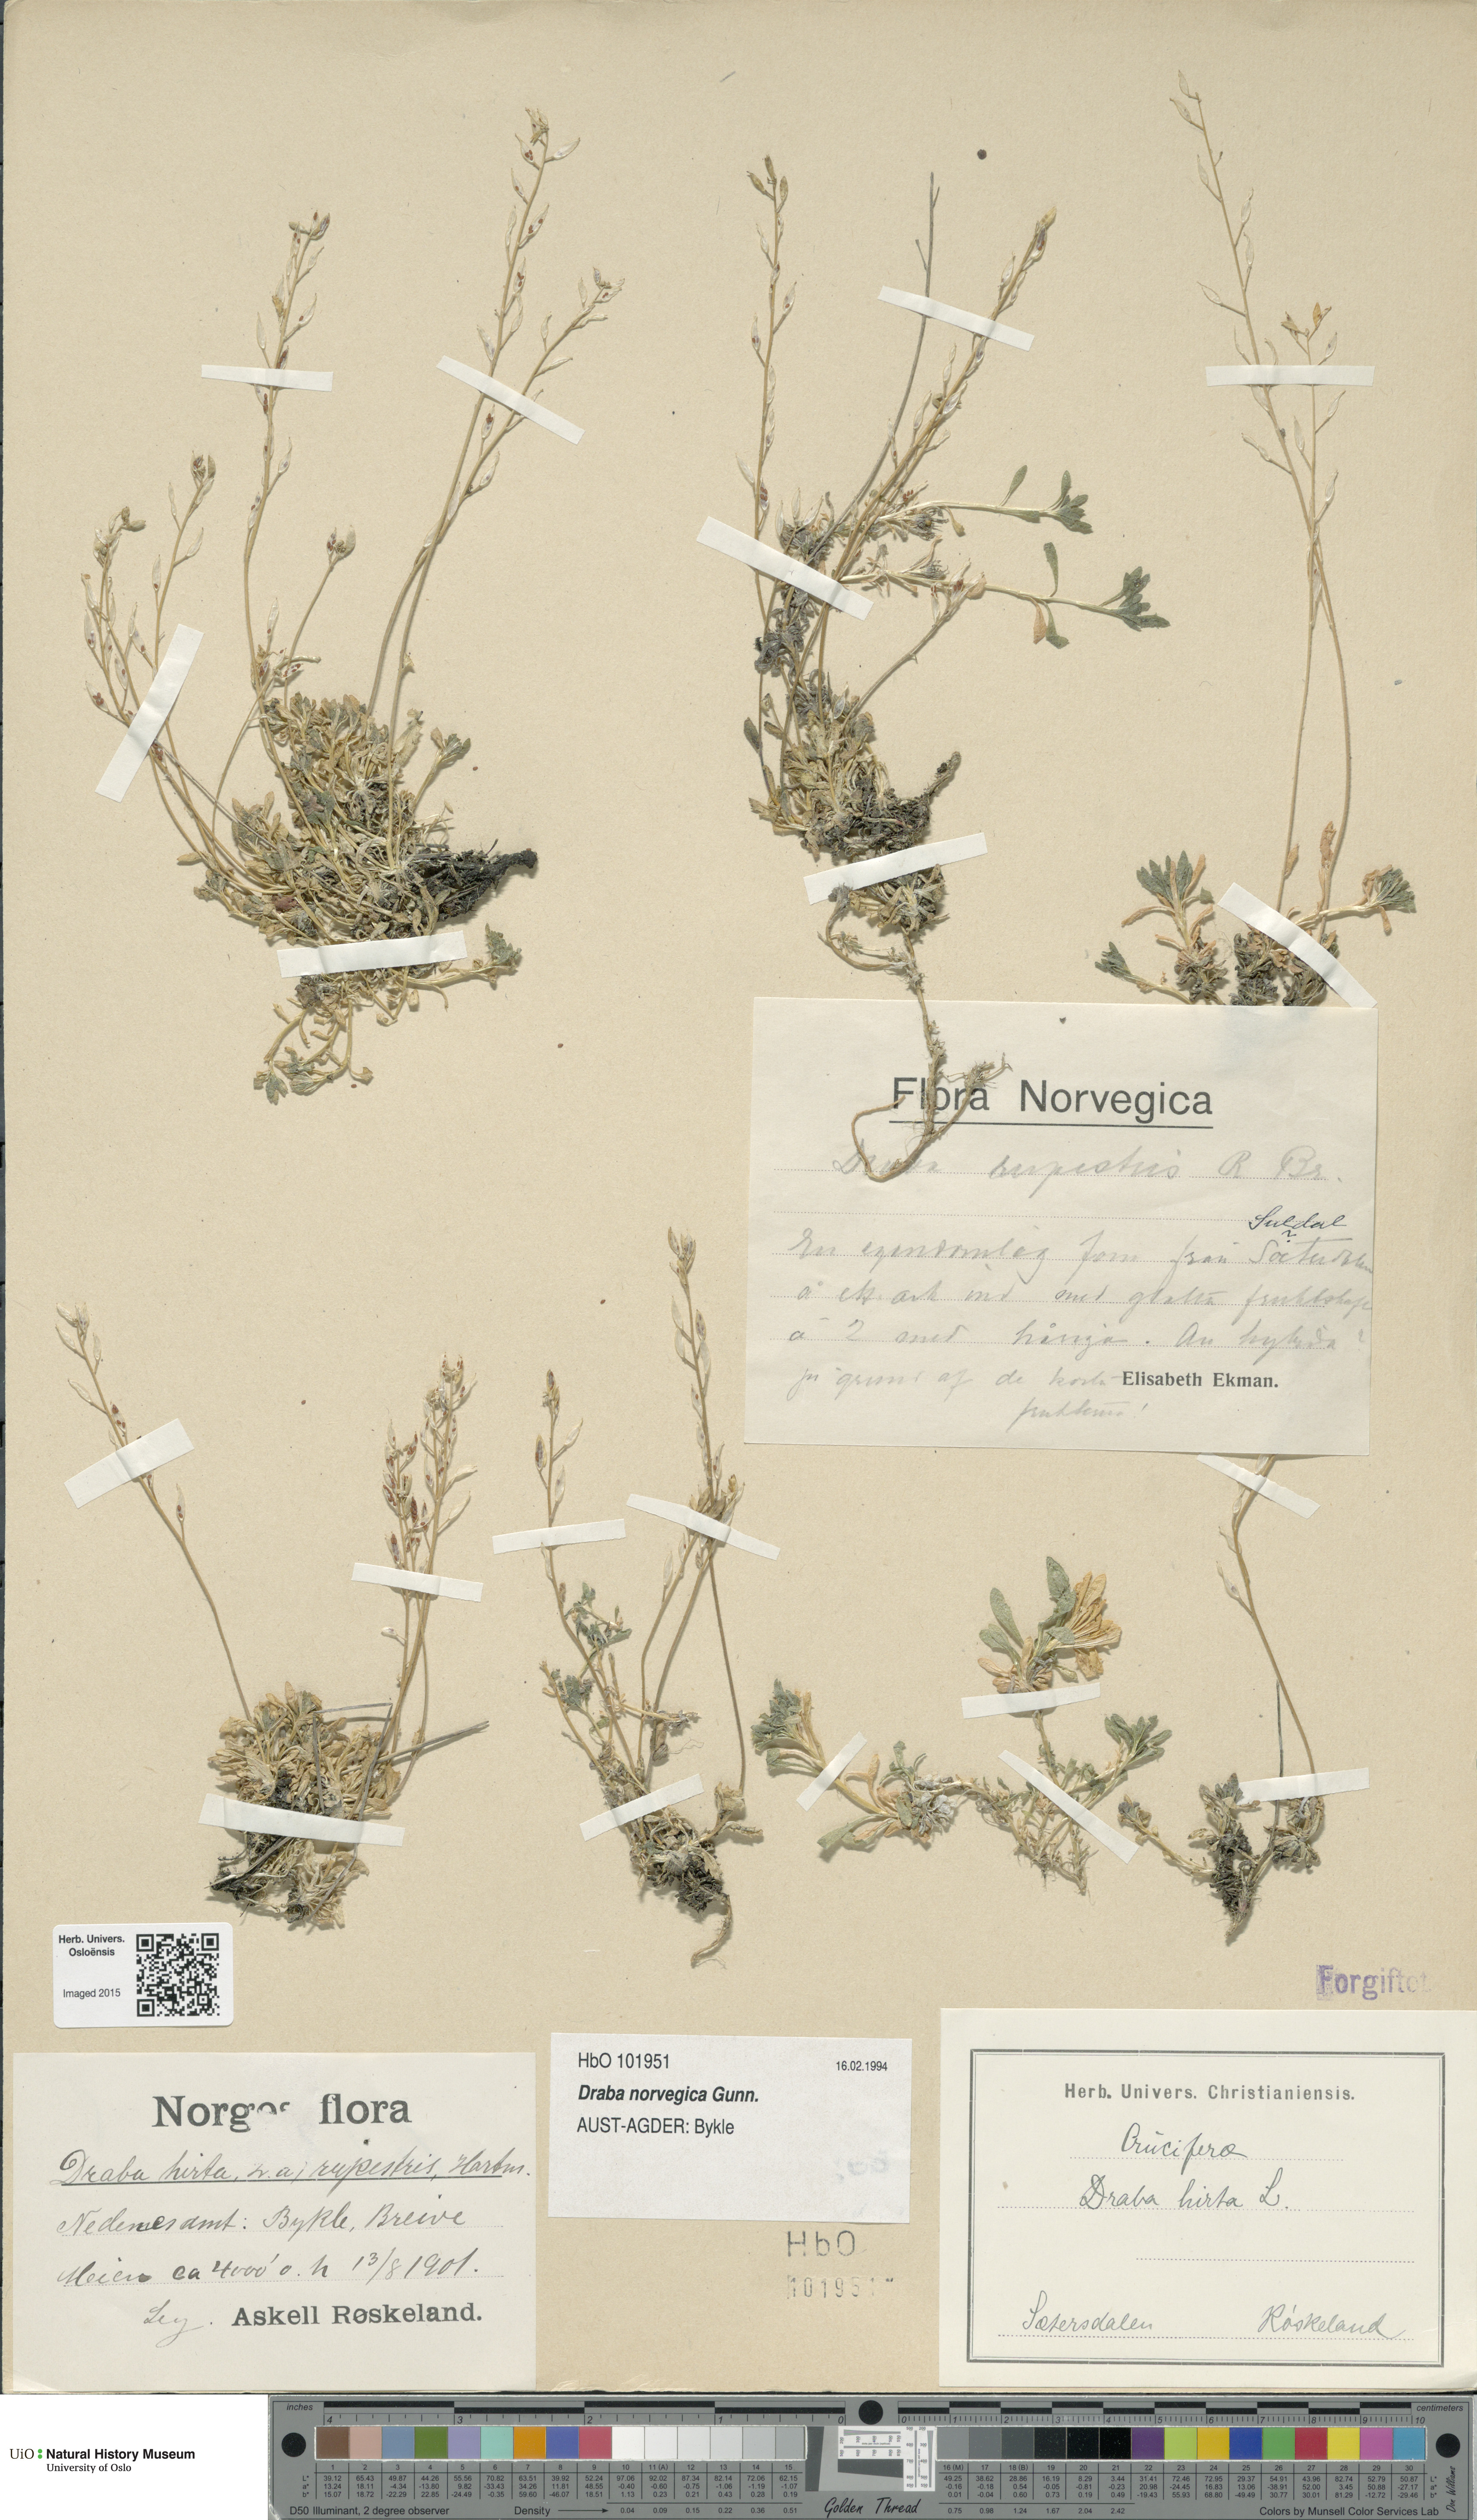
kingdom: Plantae
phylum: Tracheophyta
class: Magnoliopsida
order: Brassicales
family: Brassicaceae
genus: Draba
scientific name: Draba norvegica
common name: Rock whitlowgrass
